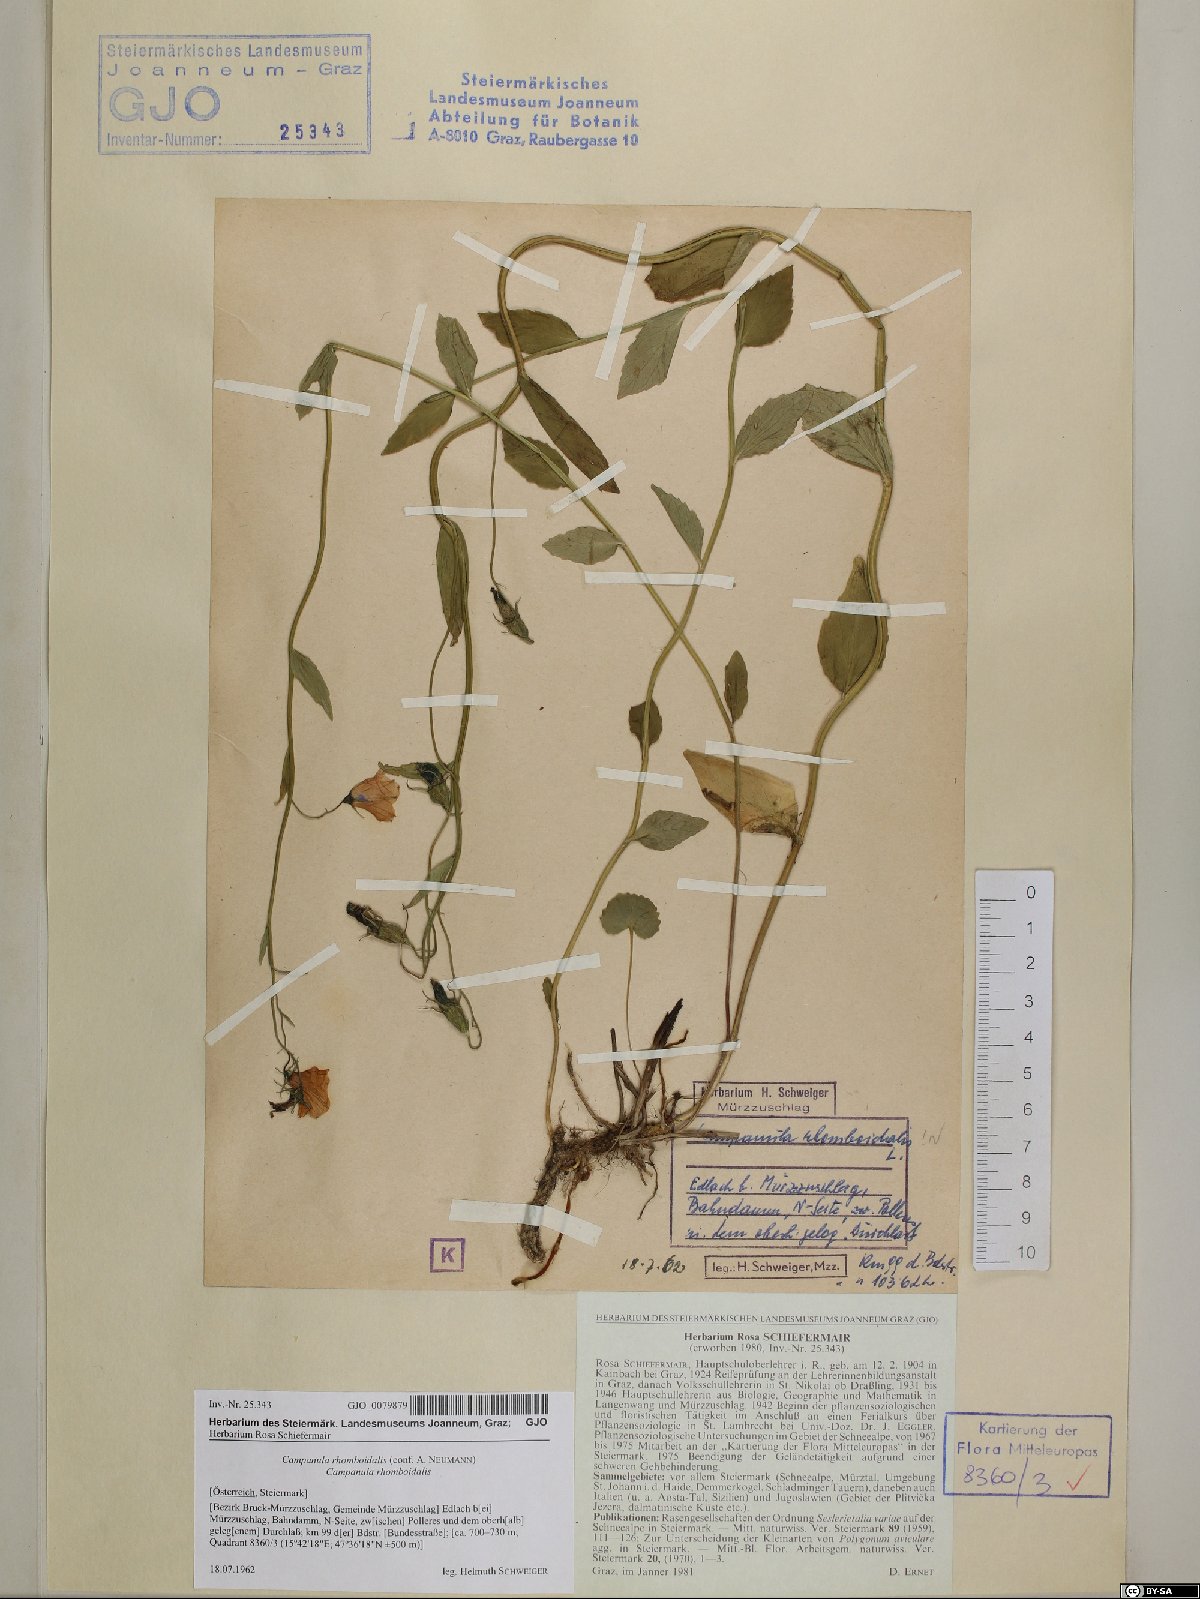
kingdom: Plantae
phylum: Tracheophyta
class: Magnoliopsida
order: Asterales
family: Campanulaceae
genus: Campanula
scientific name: Campanula rhomboidalis
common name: Broad-leaved harebell
